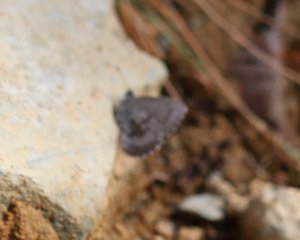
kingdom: Animalia
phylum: Arthropoda
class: Insecta
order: Lepidoptera
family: Lycaenidae
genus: Celastrina
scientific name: Celastrina lucia
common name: Northern Spring Azure
